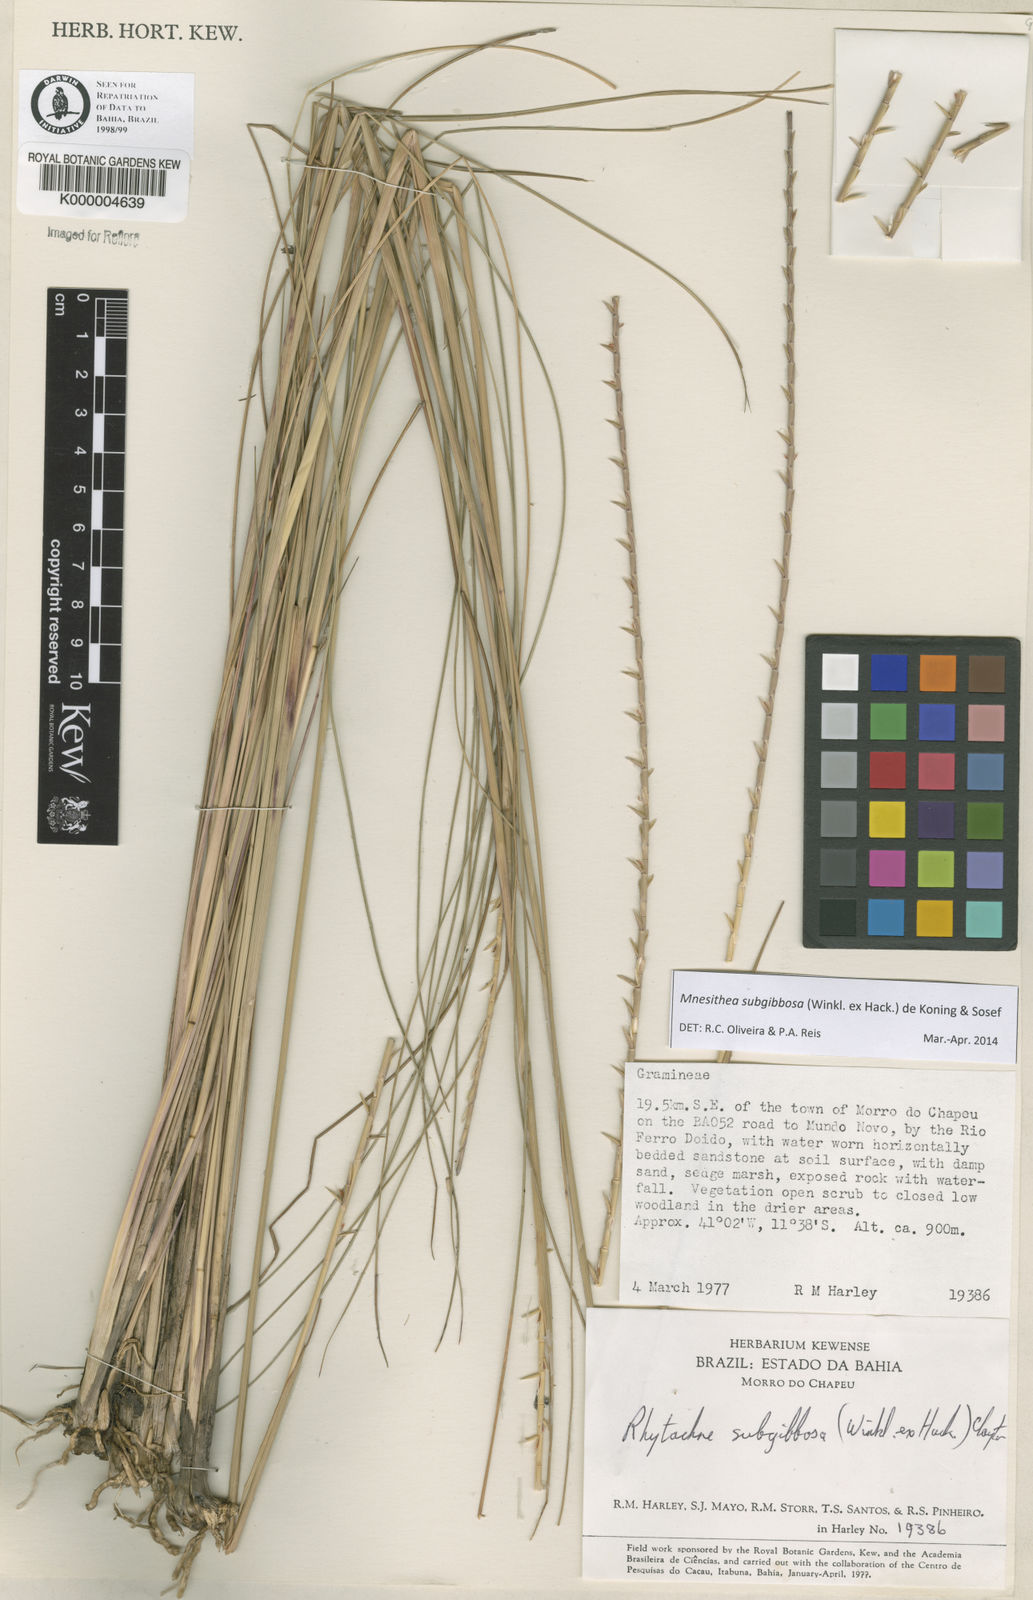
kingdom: Plantae
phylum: Tracheophyta
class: Liliopsida
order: Poales
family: Poaceae
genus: Rhytachne
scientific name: Rhytachne subgibbosa
